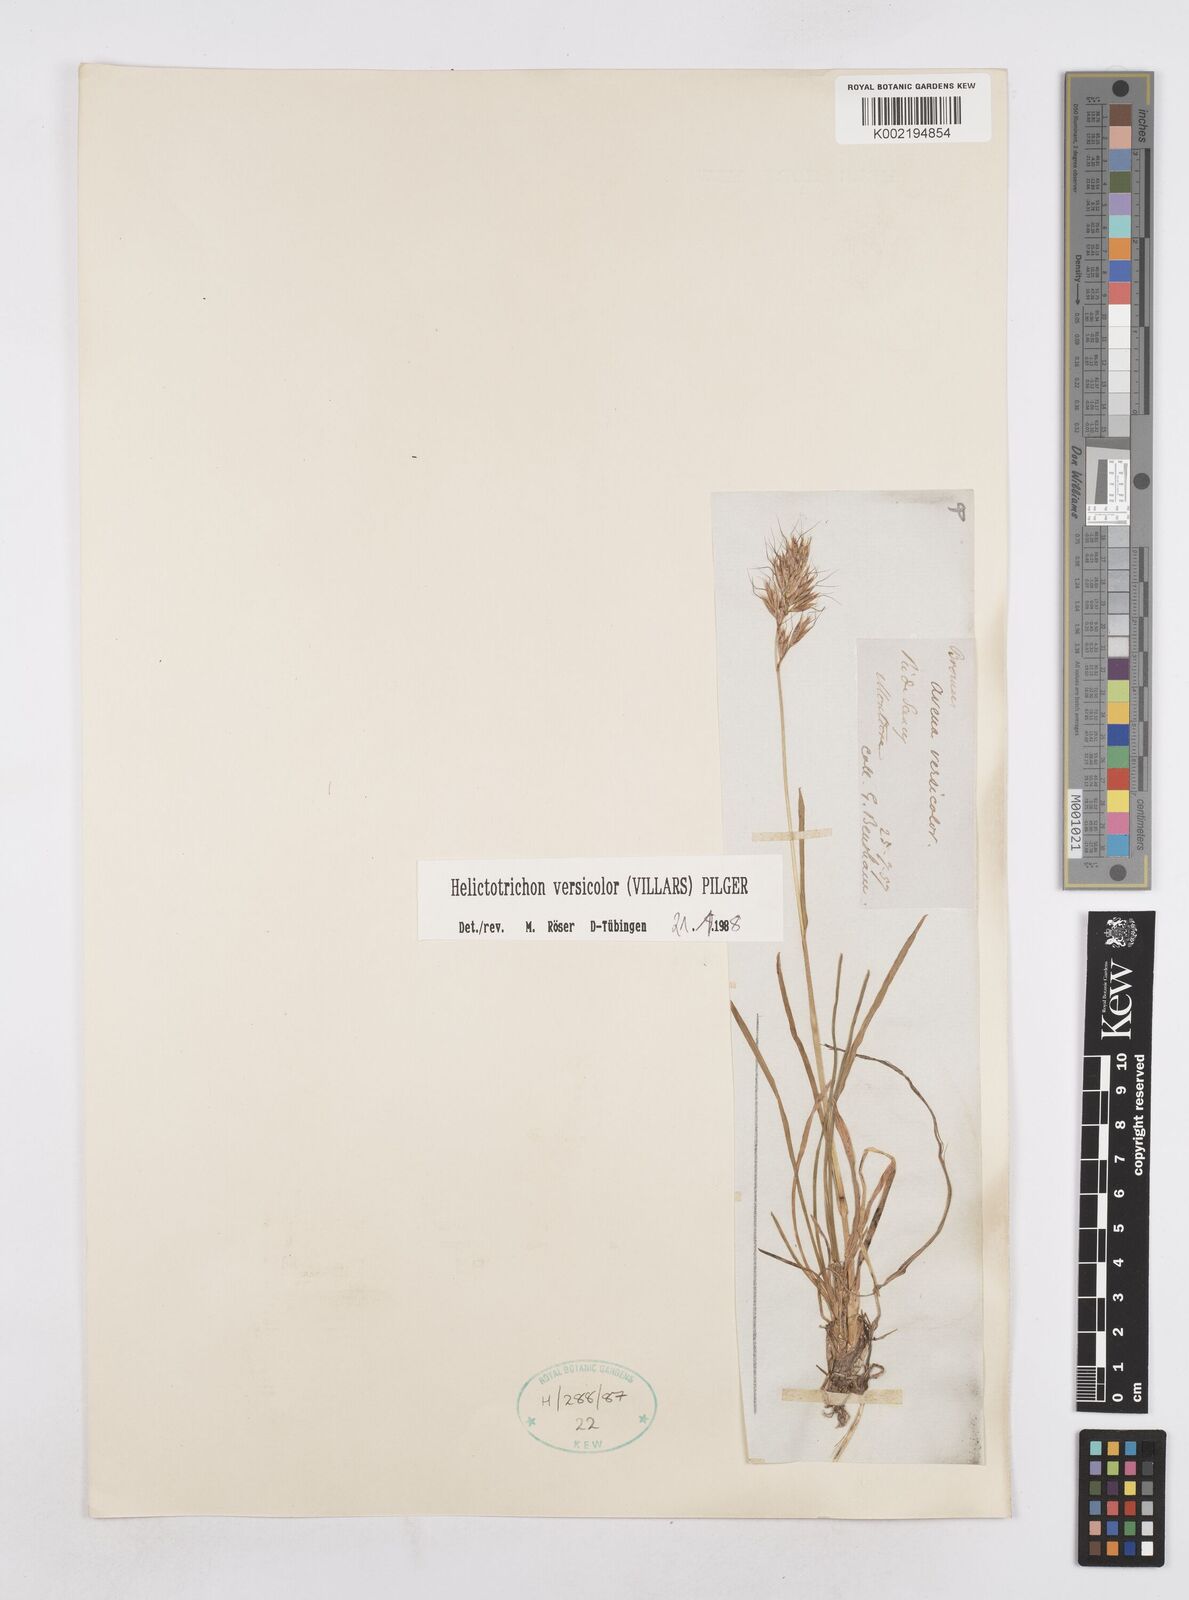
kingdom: Plantae
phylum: Tracheophyta
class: Liliopsida
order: Poales
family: Poaceae
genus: Helictochloa
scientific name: Helictochloa versicolor
